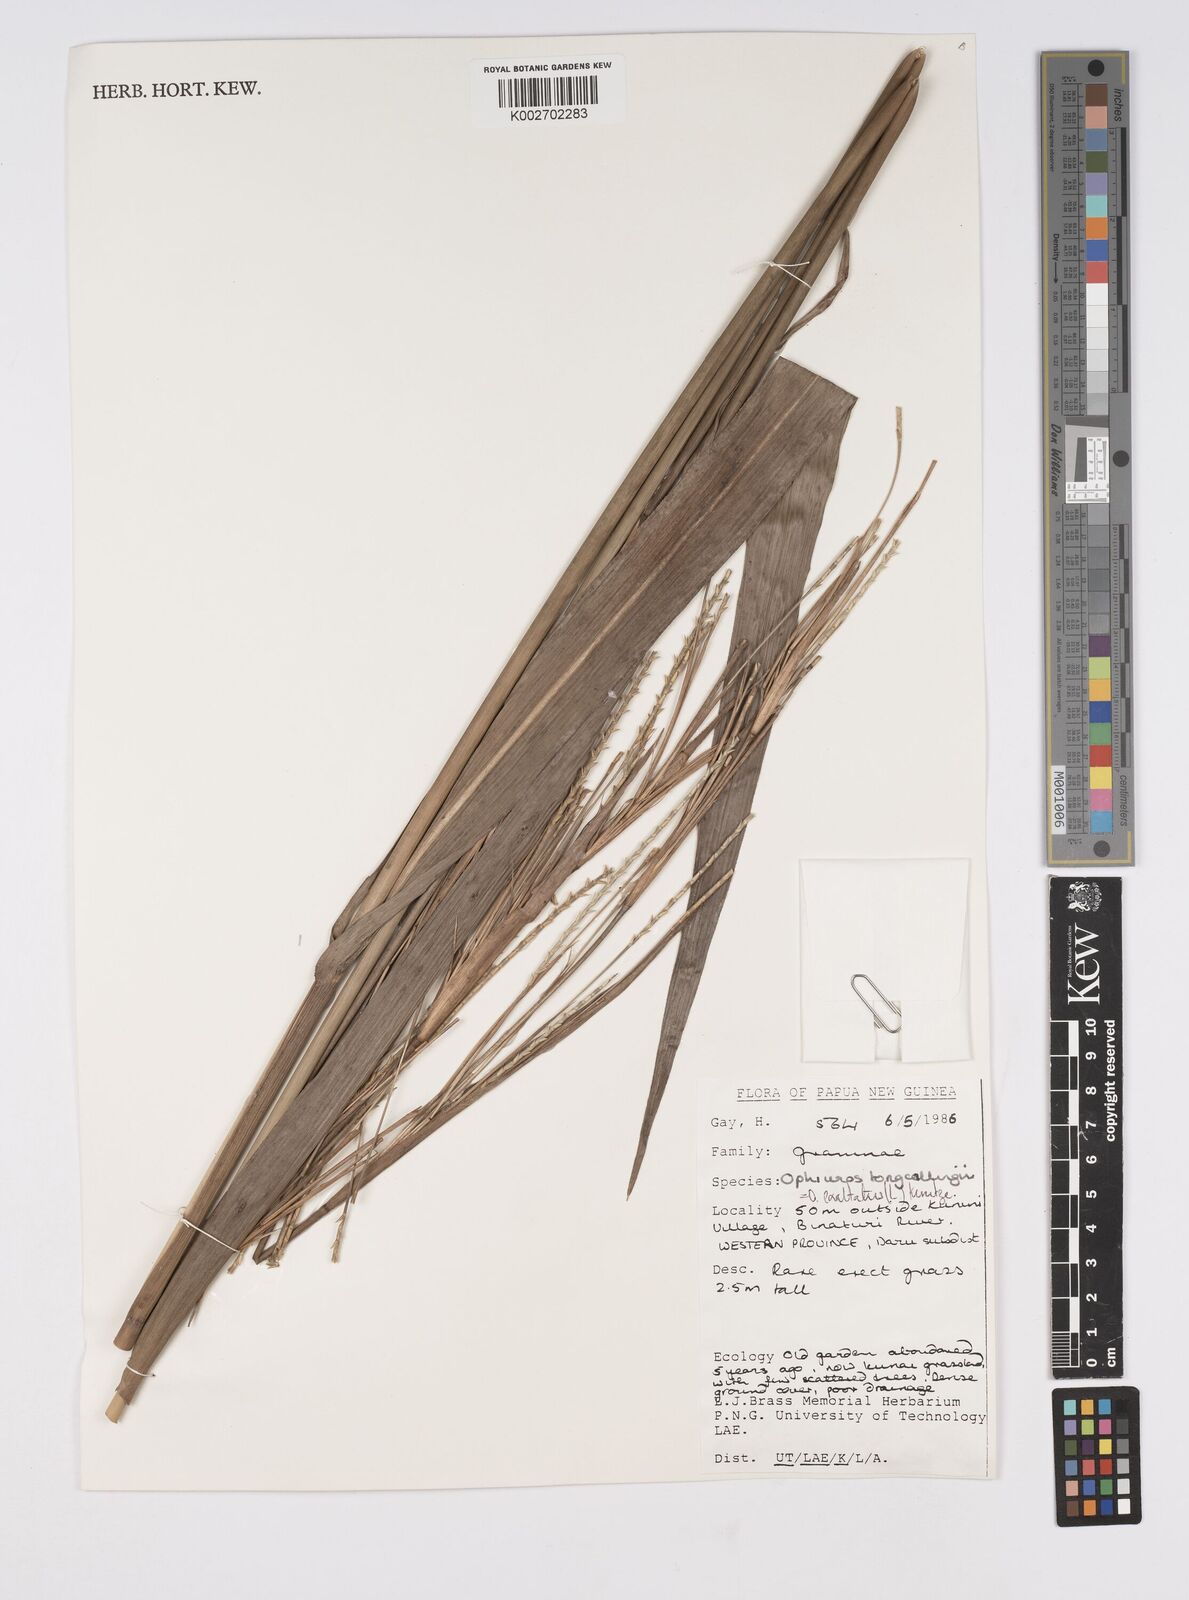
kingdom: Plantae
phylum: Tracheophyta
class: Liliopsida
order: Poales
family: Poaceae
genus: Ophiuros
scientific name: Ophiuros exaltatus
